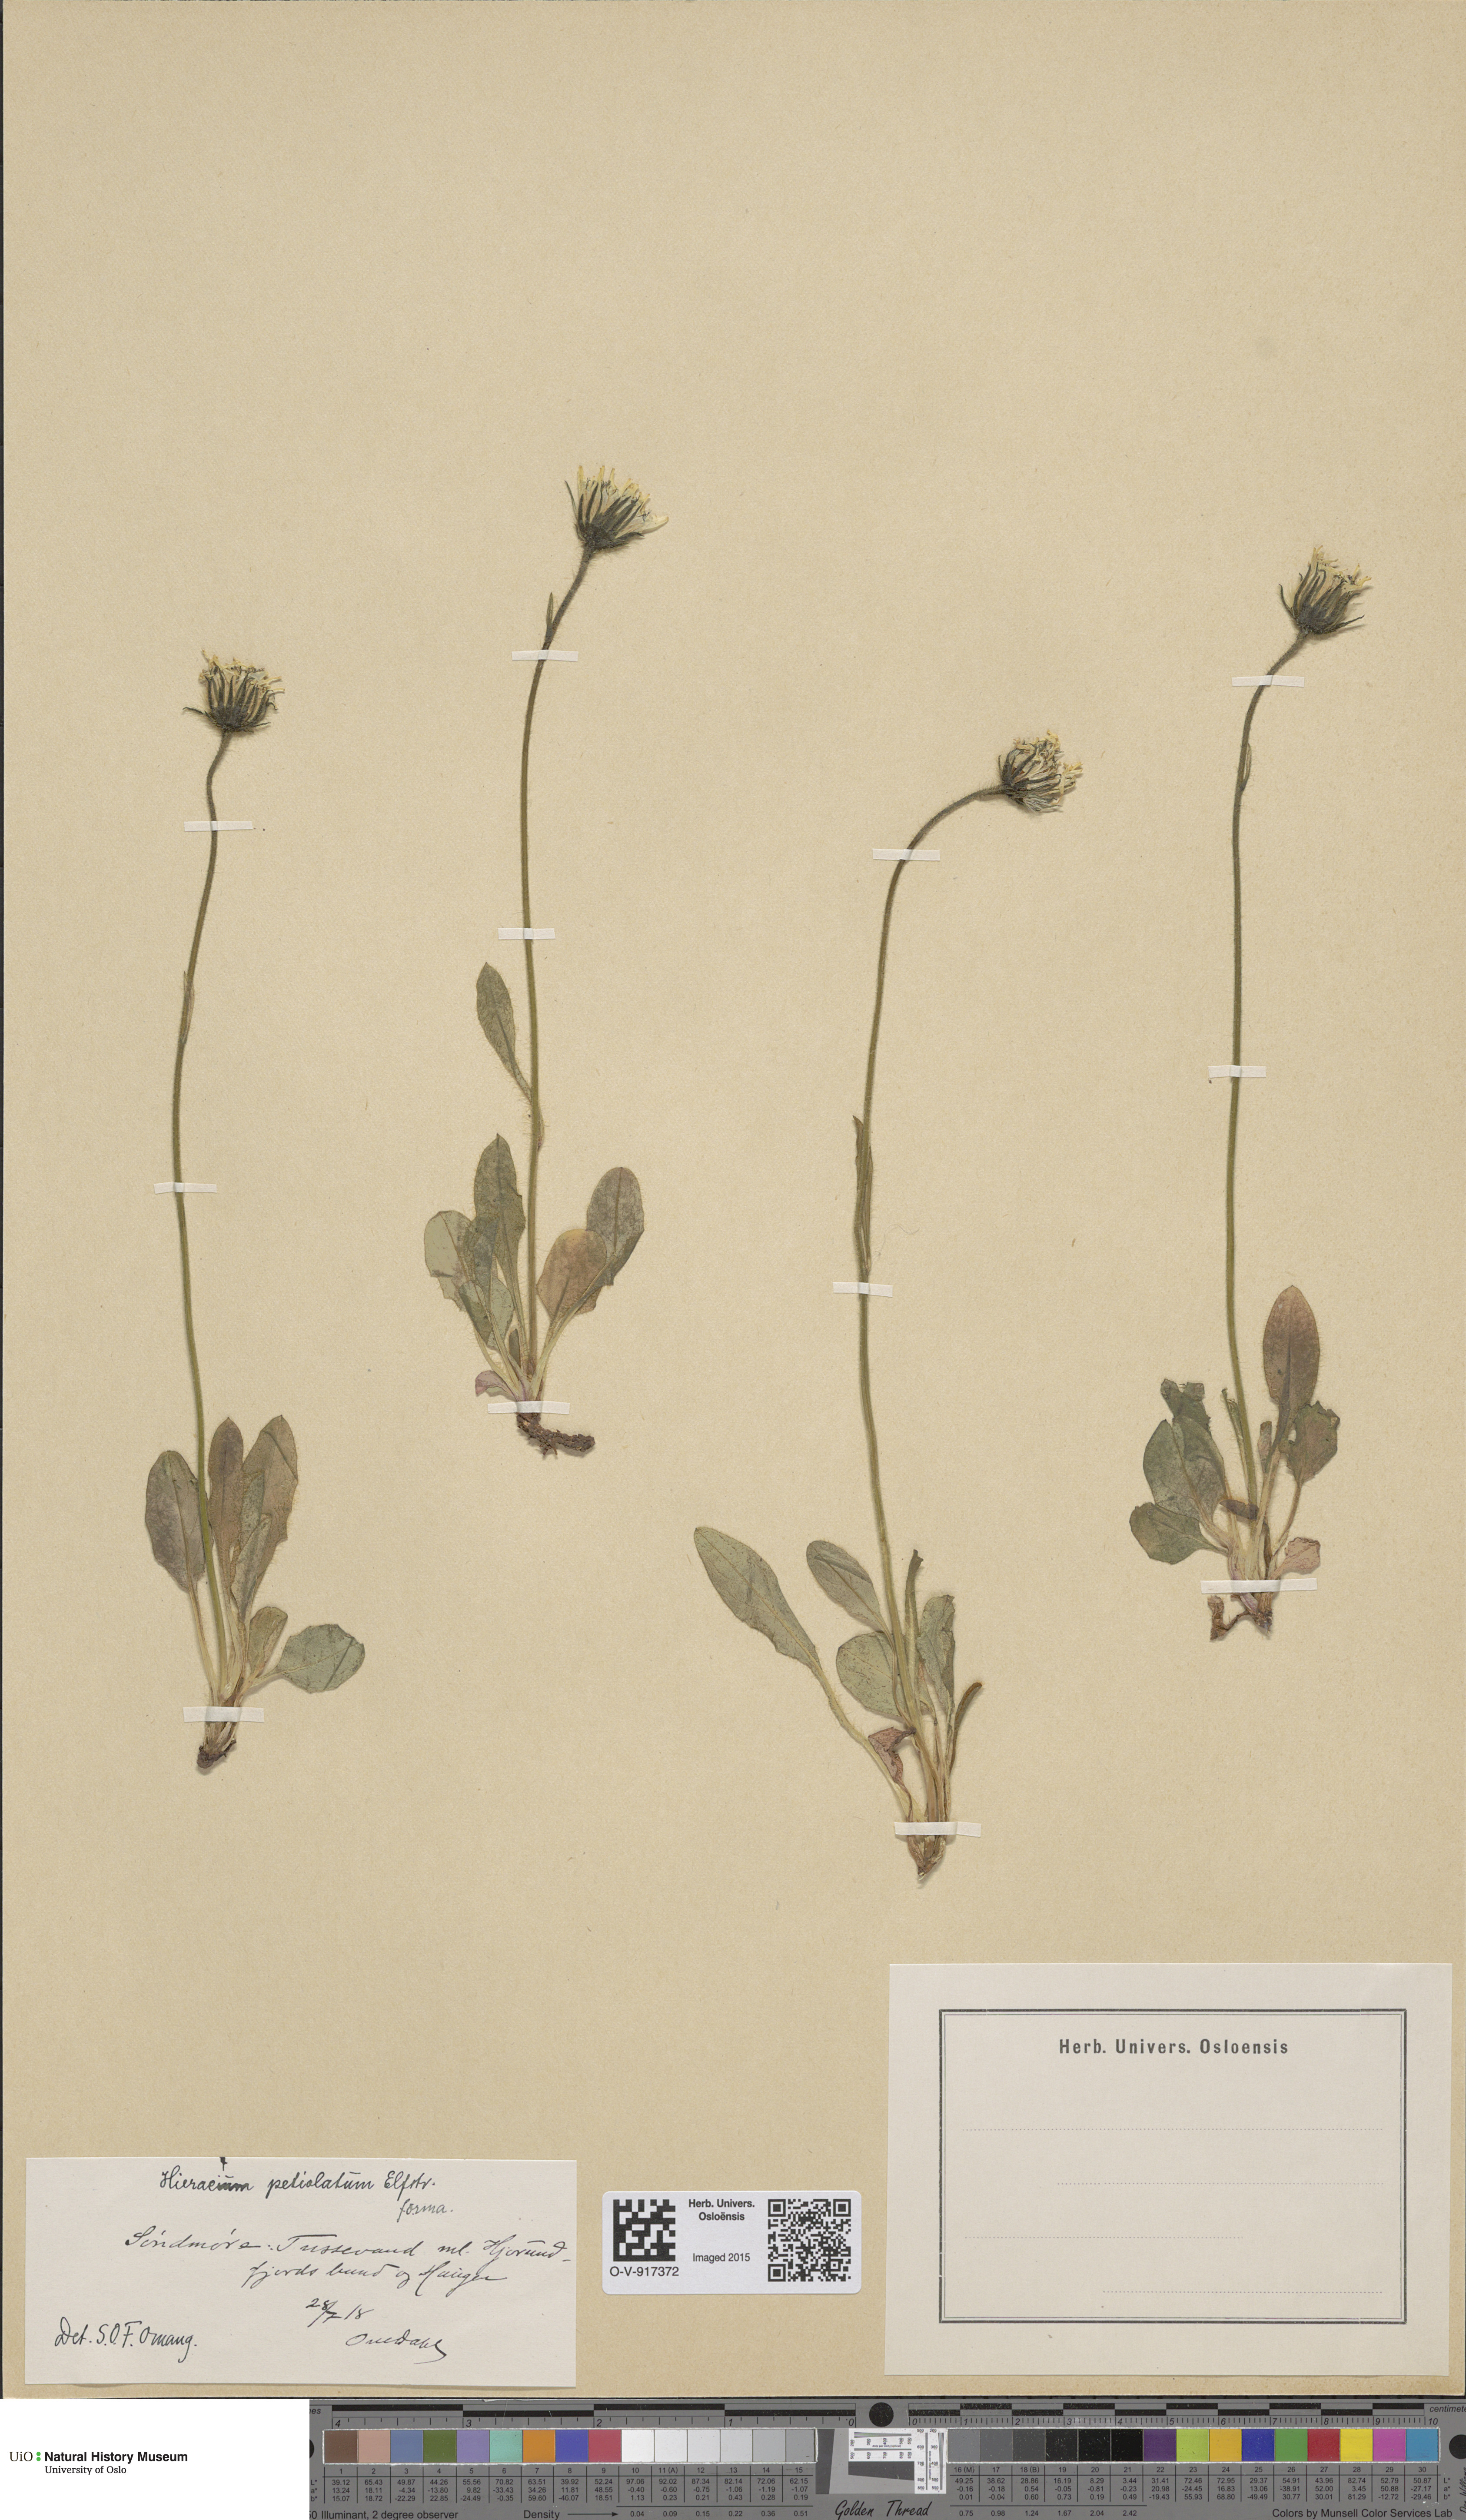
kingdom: Plantae
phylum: Tracheophyta
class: Magnoliopsida
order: Asterales
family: Asteraceae
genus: Hieracium
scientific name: Hieracium alpinum
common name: Alpine hawkweed
